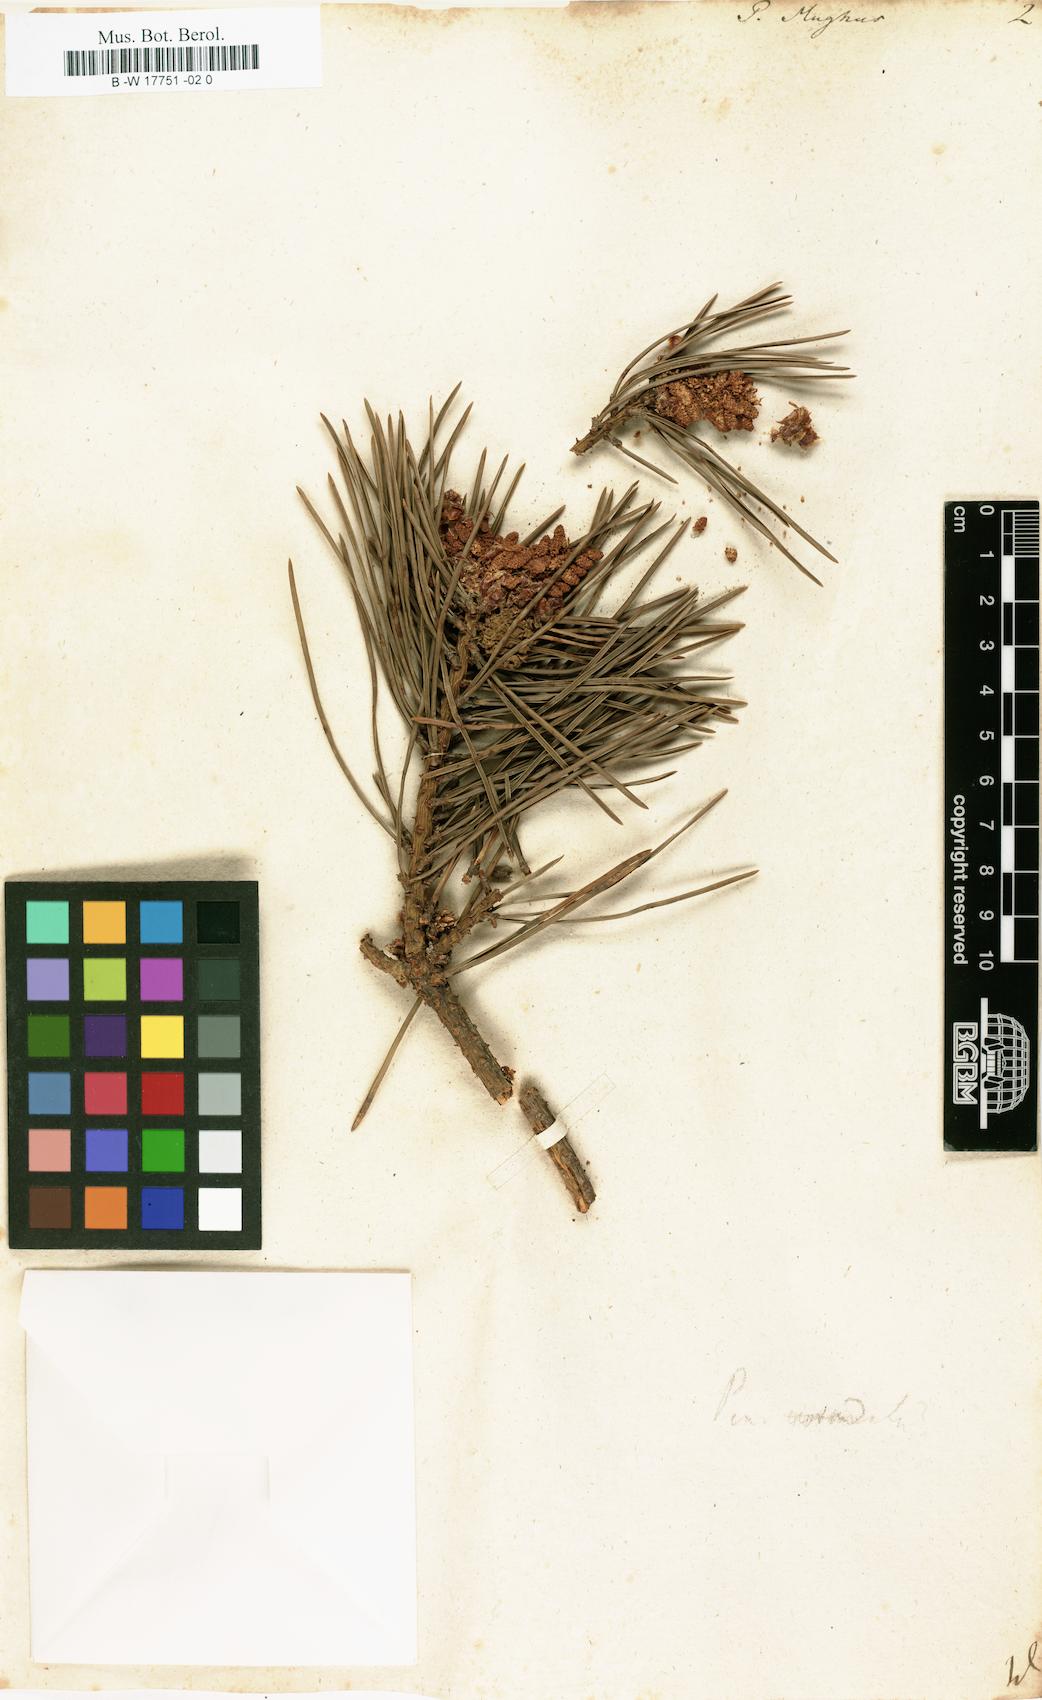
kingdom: Plantae
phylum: Tracheophyta
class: Pinopsida
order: Pinales
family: Pinaceae
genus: Pinus
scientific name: Pinus
